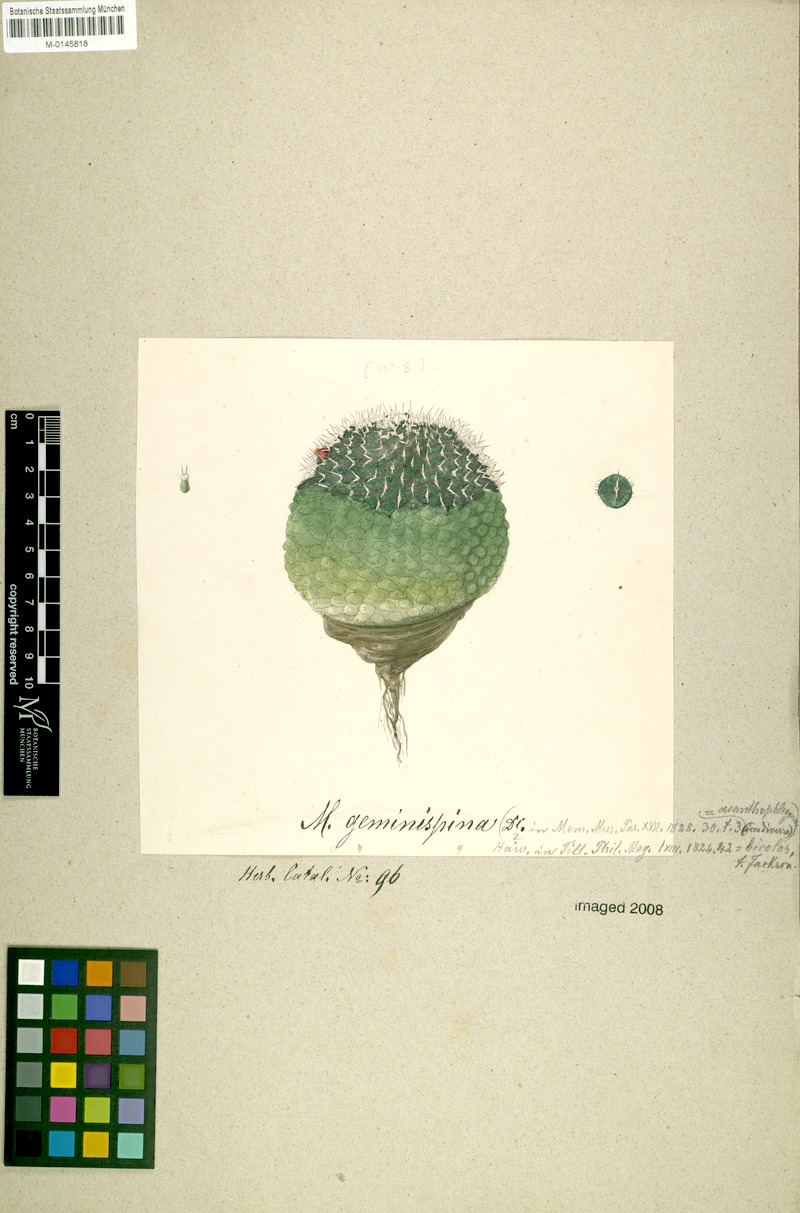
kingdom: Plantae
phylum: Tracheophyta
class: Magnoliopsida
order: Caryophyllales
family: Cactaceae
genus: Mammillaria
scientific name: Mammillaria geminispina
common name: Whitey
